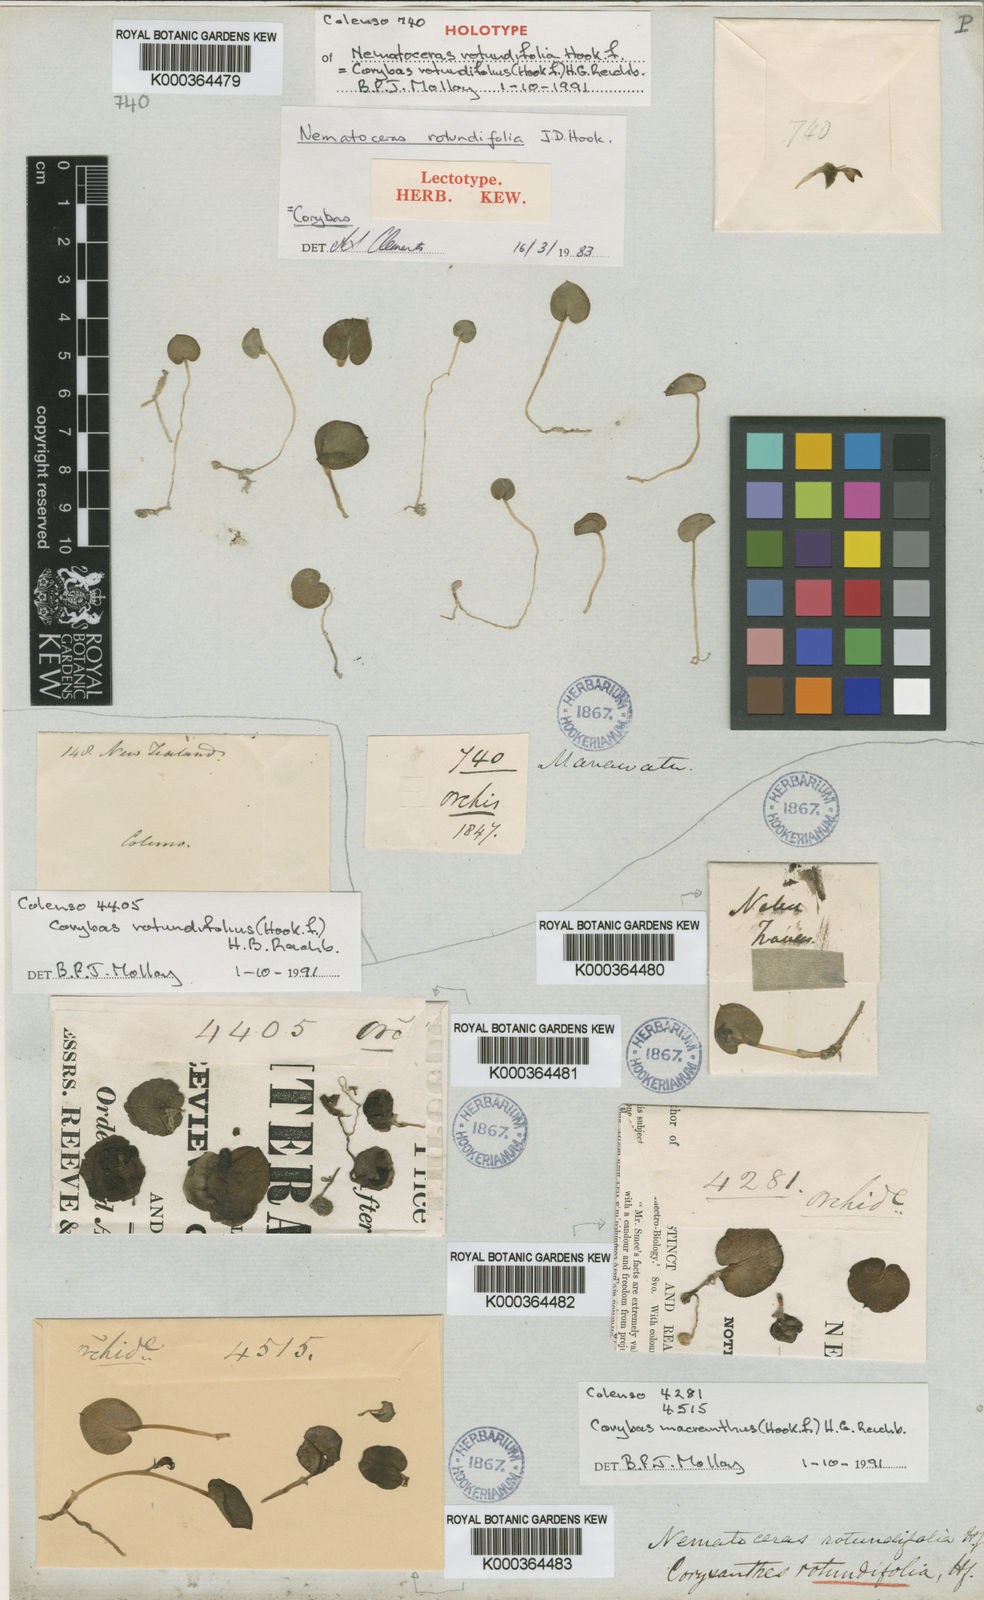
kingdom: Plantae
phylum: Tracheophyta
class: Liliopsida
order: Asparagales
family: Orchidaceae
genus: Corybas
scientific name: Corybas rotundifolius
